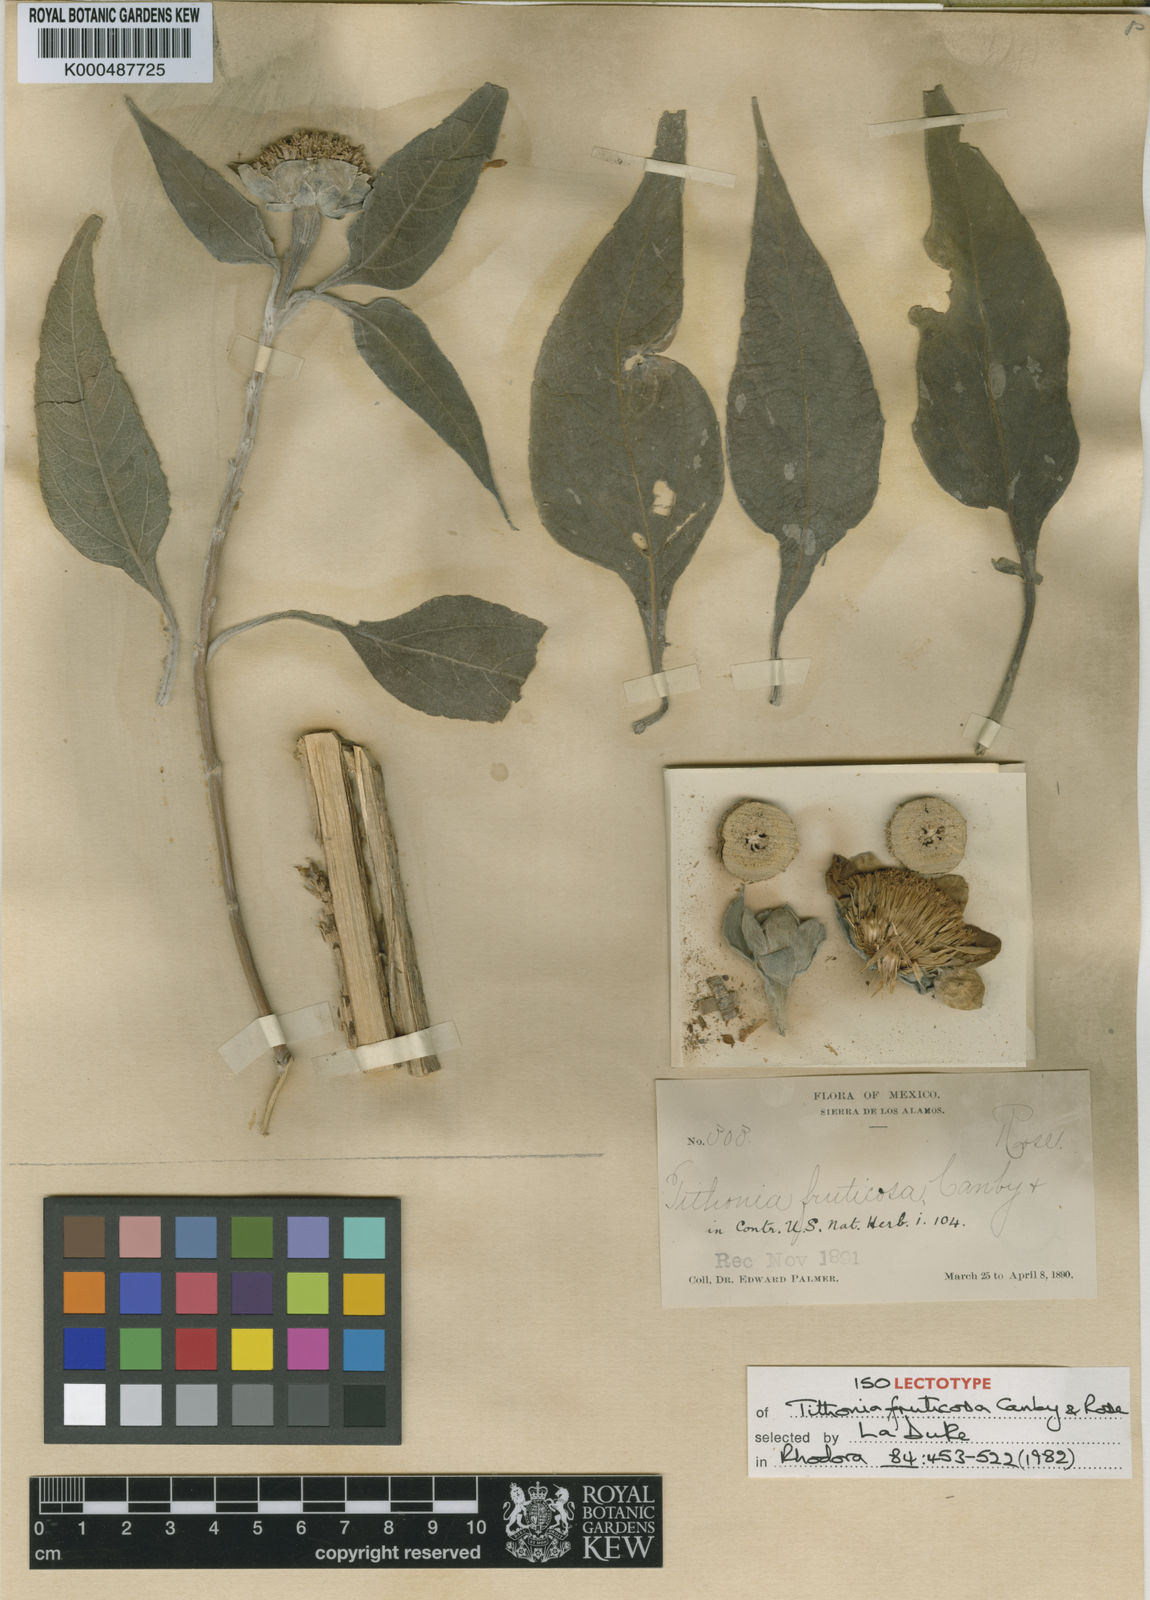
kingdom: Plantae
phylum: Tracheophyta
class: Magnoliopsida
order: Asterales
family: Asteraceae
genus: Tithonia
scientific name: Tithonia fruticosa
